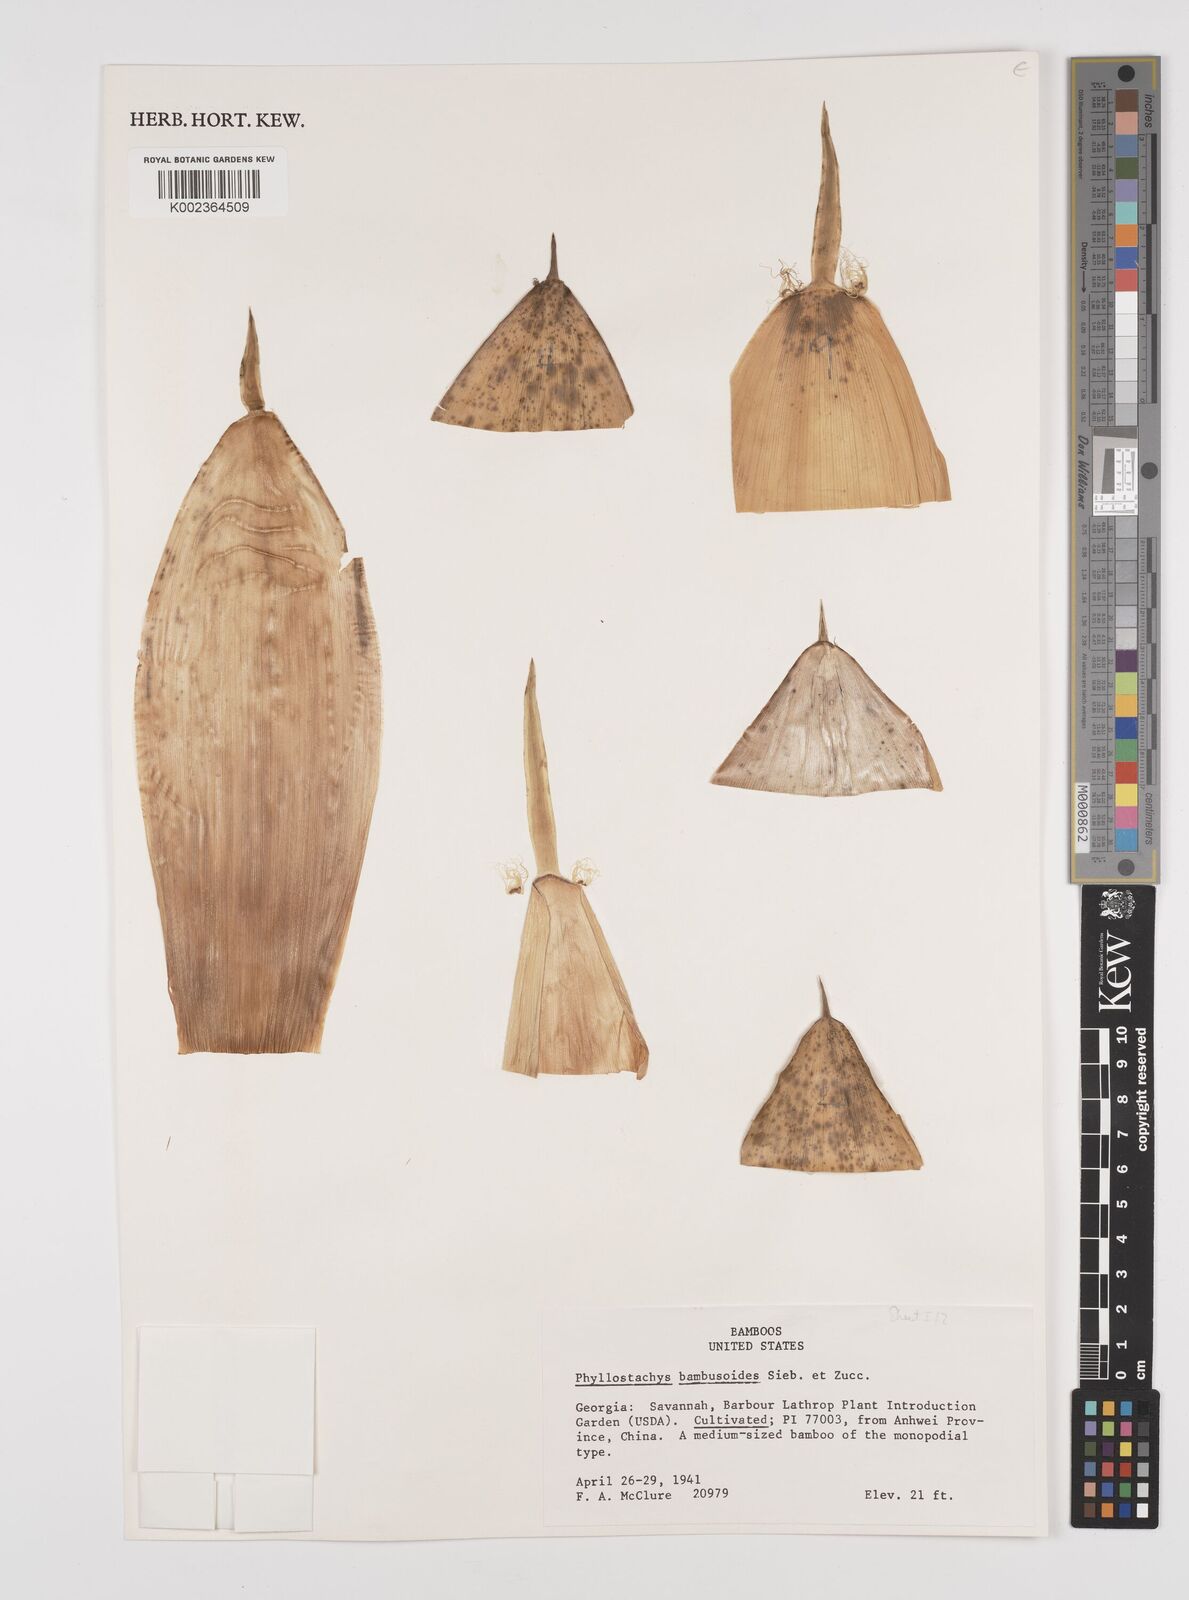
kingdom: Plantae
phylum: Tracheophyta
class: Liliopsida
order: Poales
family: Poaceae
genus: Phyllostachys
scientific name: Phyllostachys reticulata
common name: Bamboo
